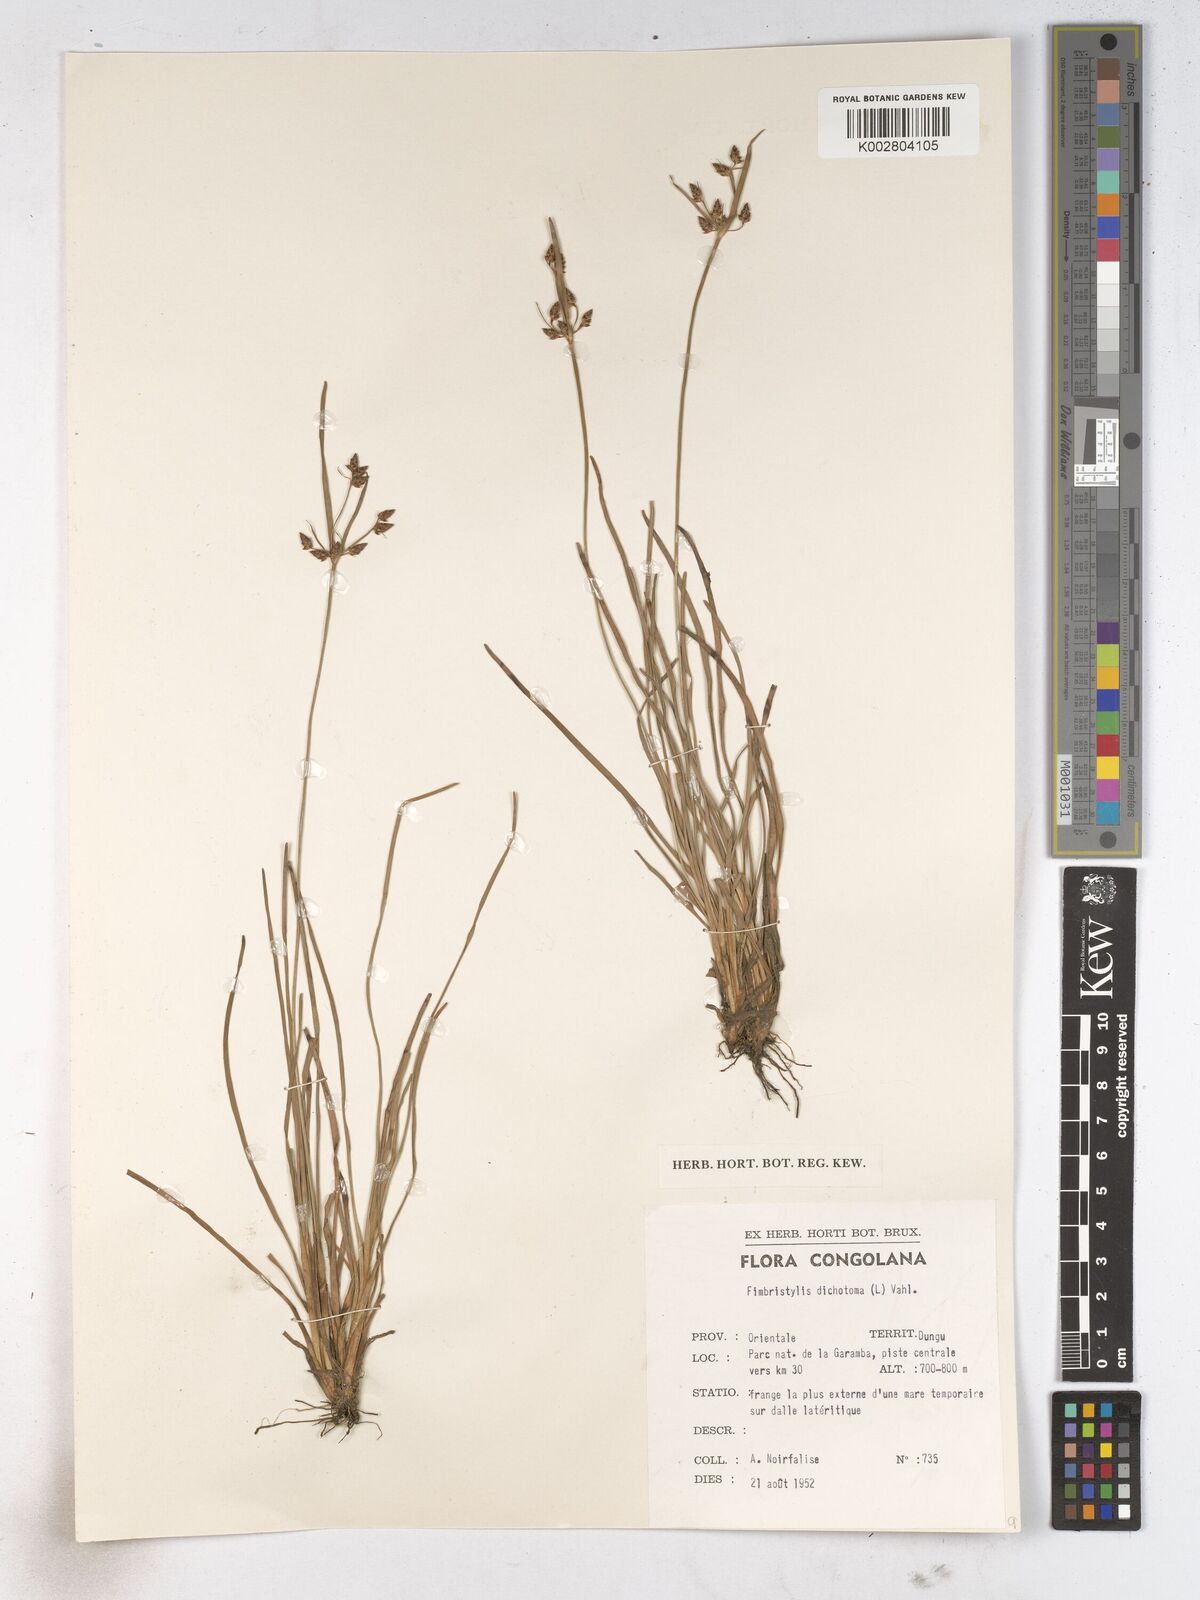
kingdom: Plantae
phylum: Tracheophyta
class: Liliopsida
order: Poales
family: Cyperaceae
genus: Fimbristylis
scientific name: Fimbristylis dichotoma
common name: Forked fimbry
